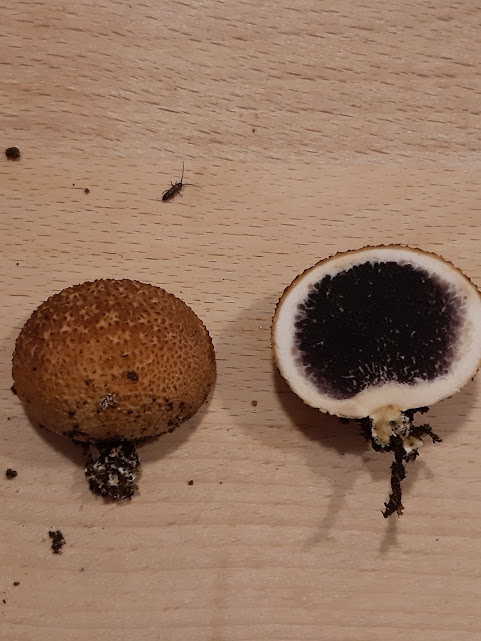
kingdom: Fungi
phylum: Basidiomycota
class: Agaricomycetes
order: Boletales
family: Sclerodermataceae
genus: Scleroderma
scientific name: Scleroderma citrinum
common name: almindelig bruskbold
